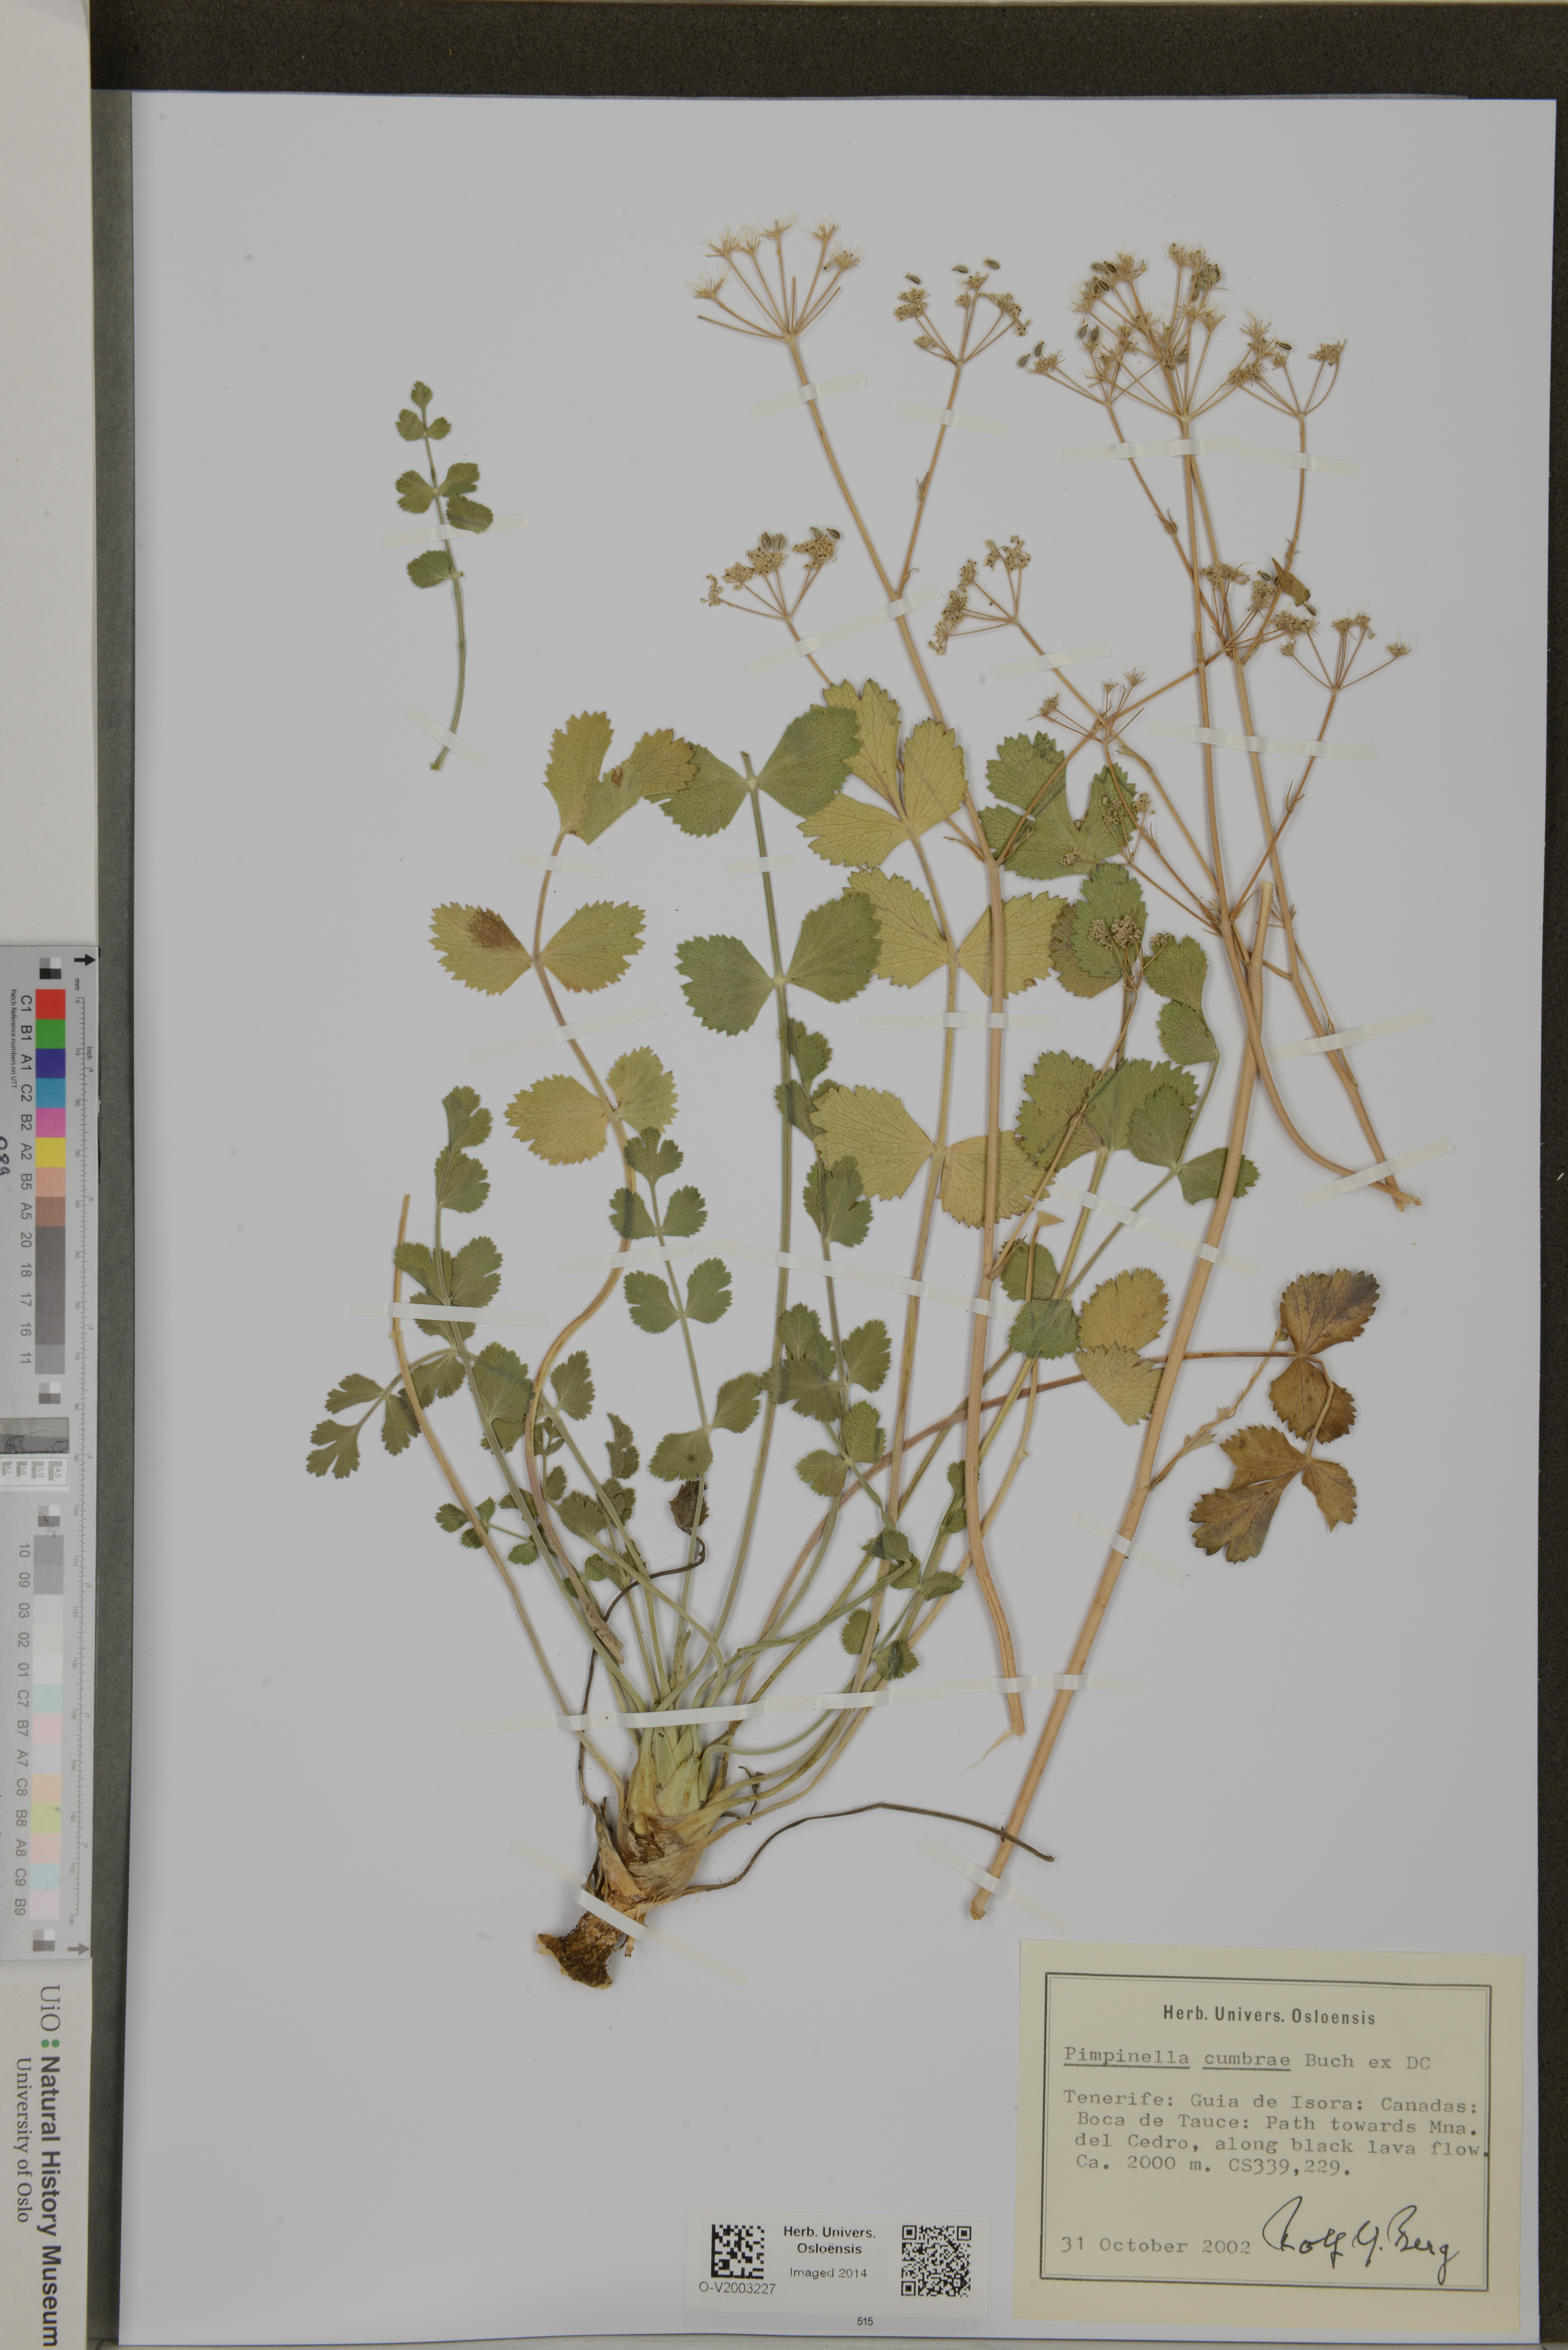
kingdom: Plantae
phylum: Tracheophyta
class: Magnoliopsida
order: Apiales
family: Apiaceae
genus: Pimpinella
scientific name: Pimpinella cumbrae
